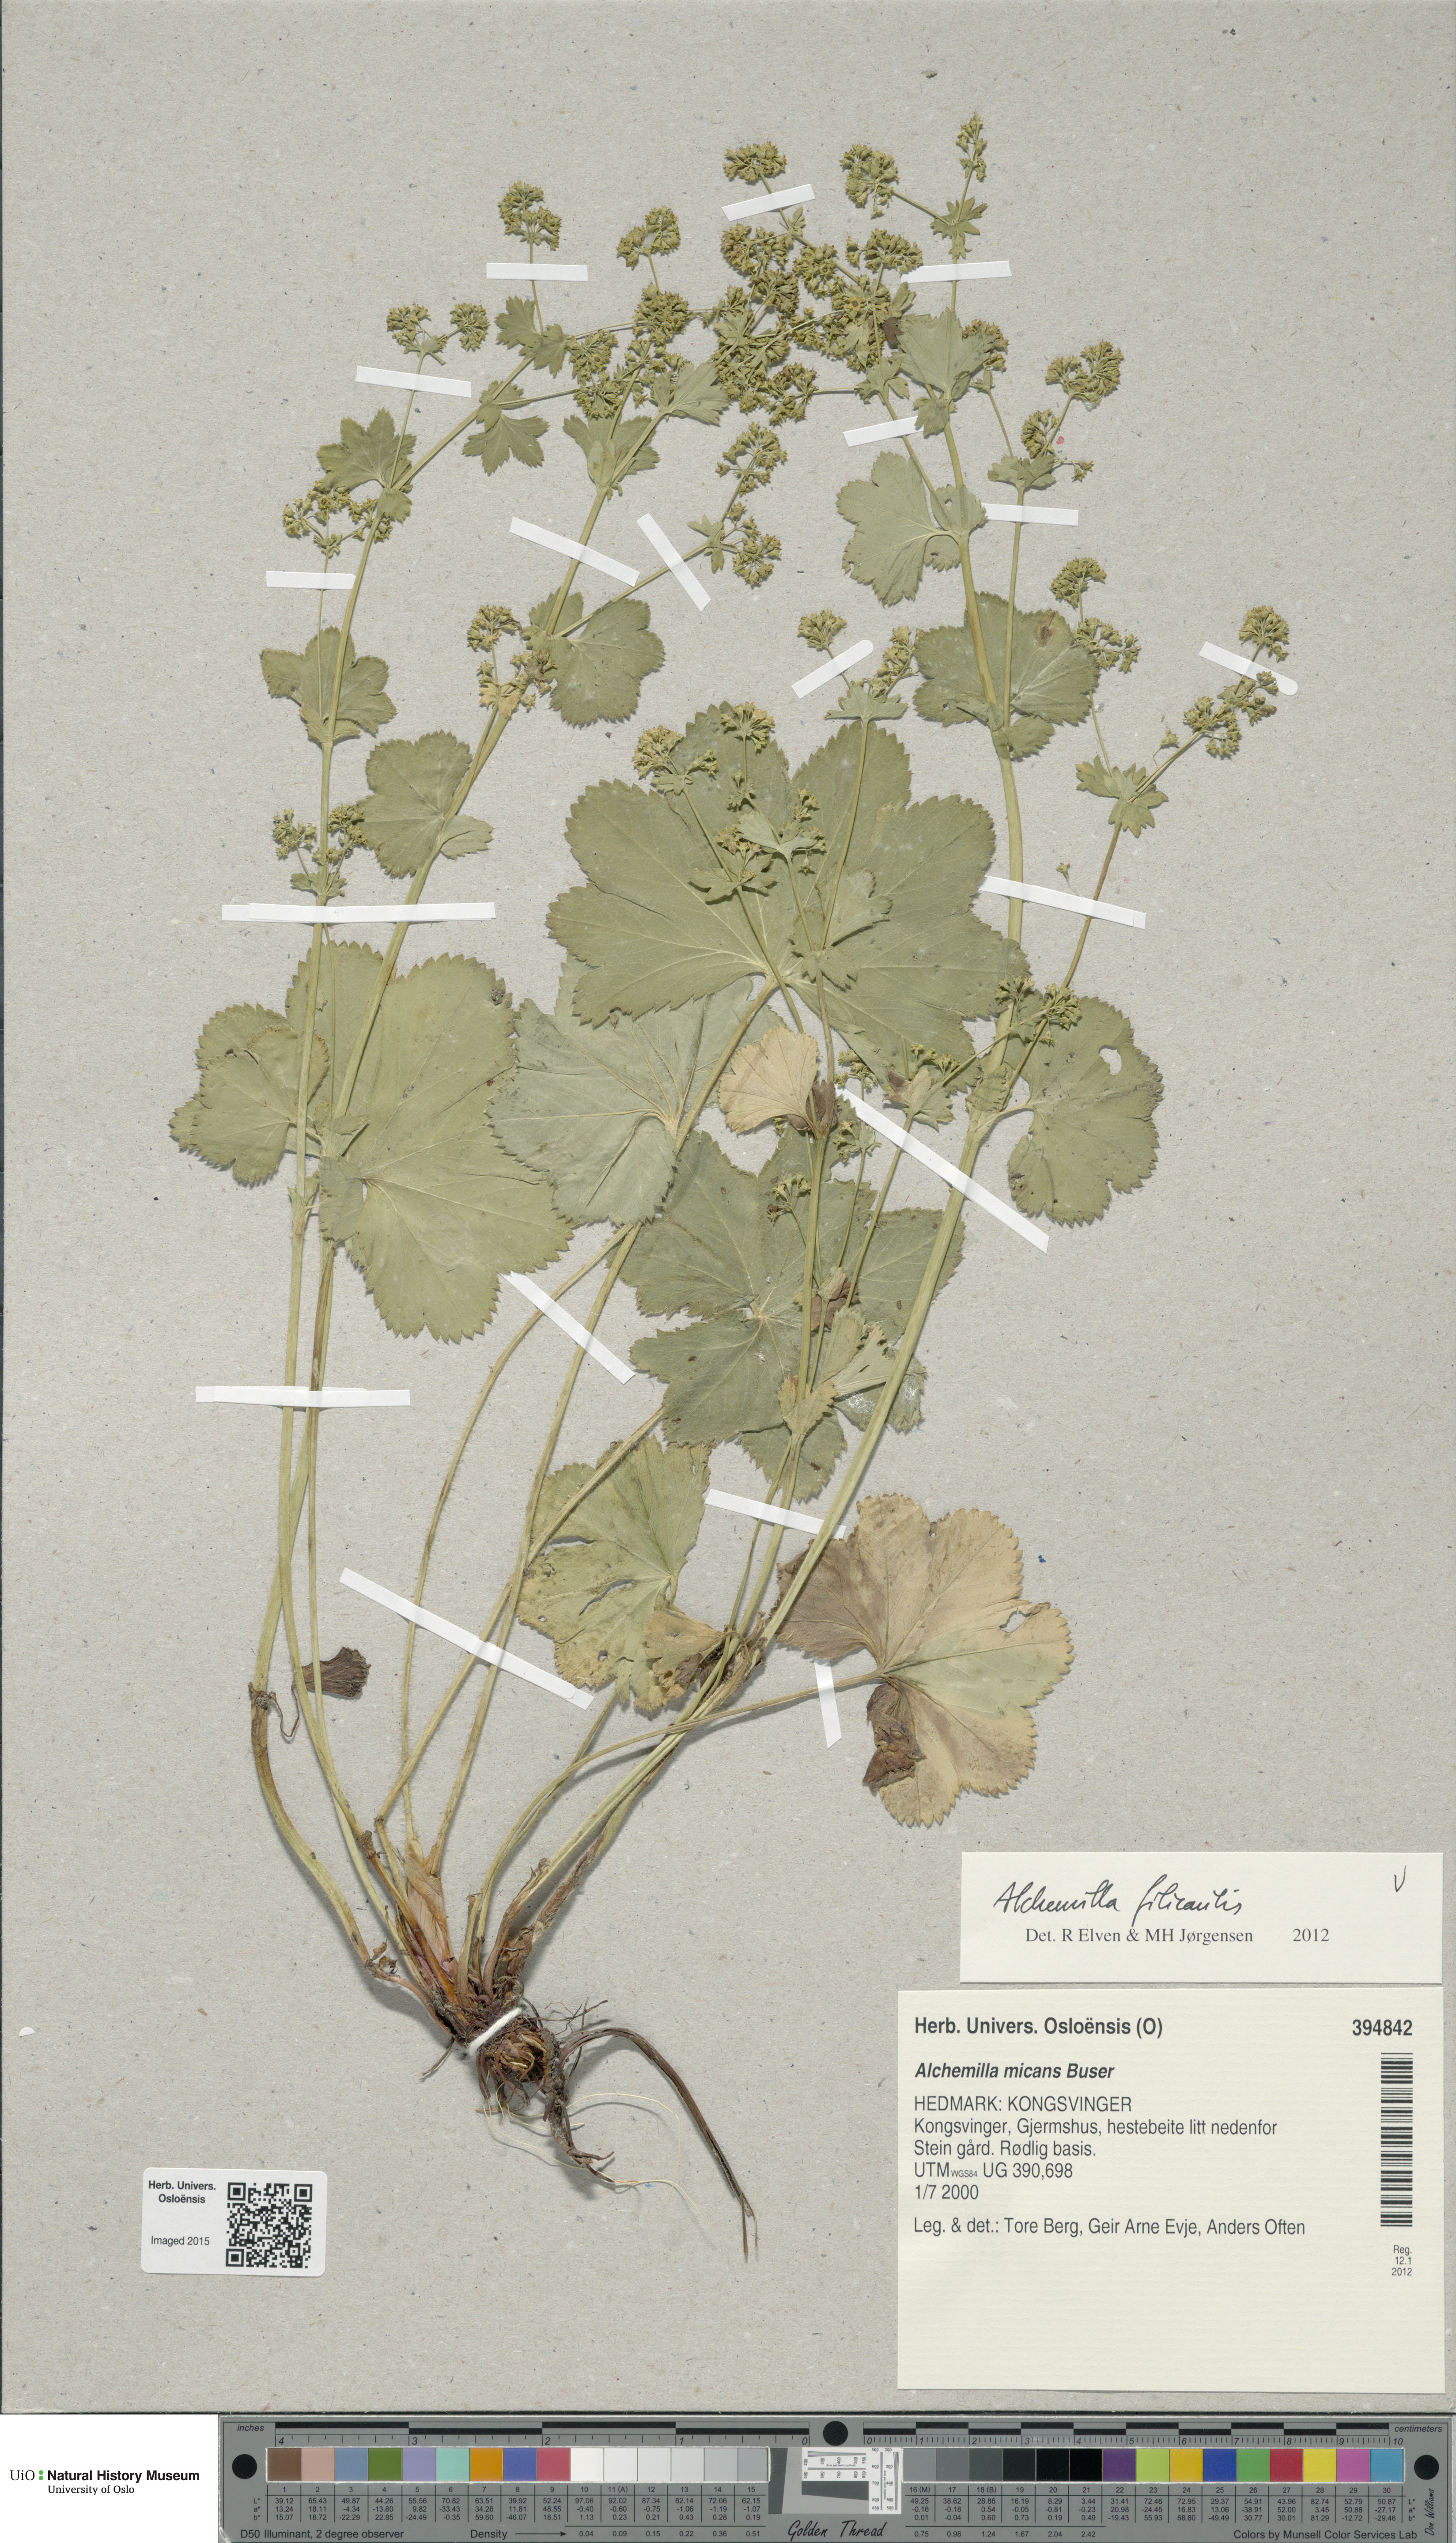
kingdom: Plantae
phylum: Tracheophyta
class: Magnoliopsida
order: Rosales
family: Rosaceae
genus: Alchemilla
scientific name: Alchemilla filicaulis
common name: Hairy lady's-mantle
